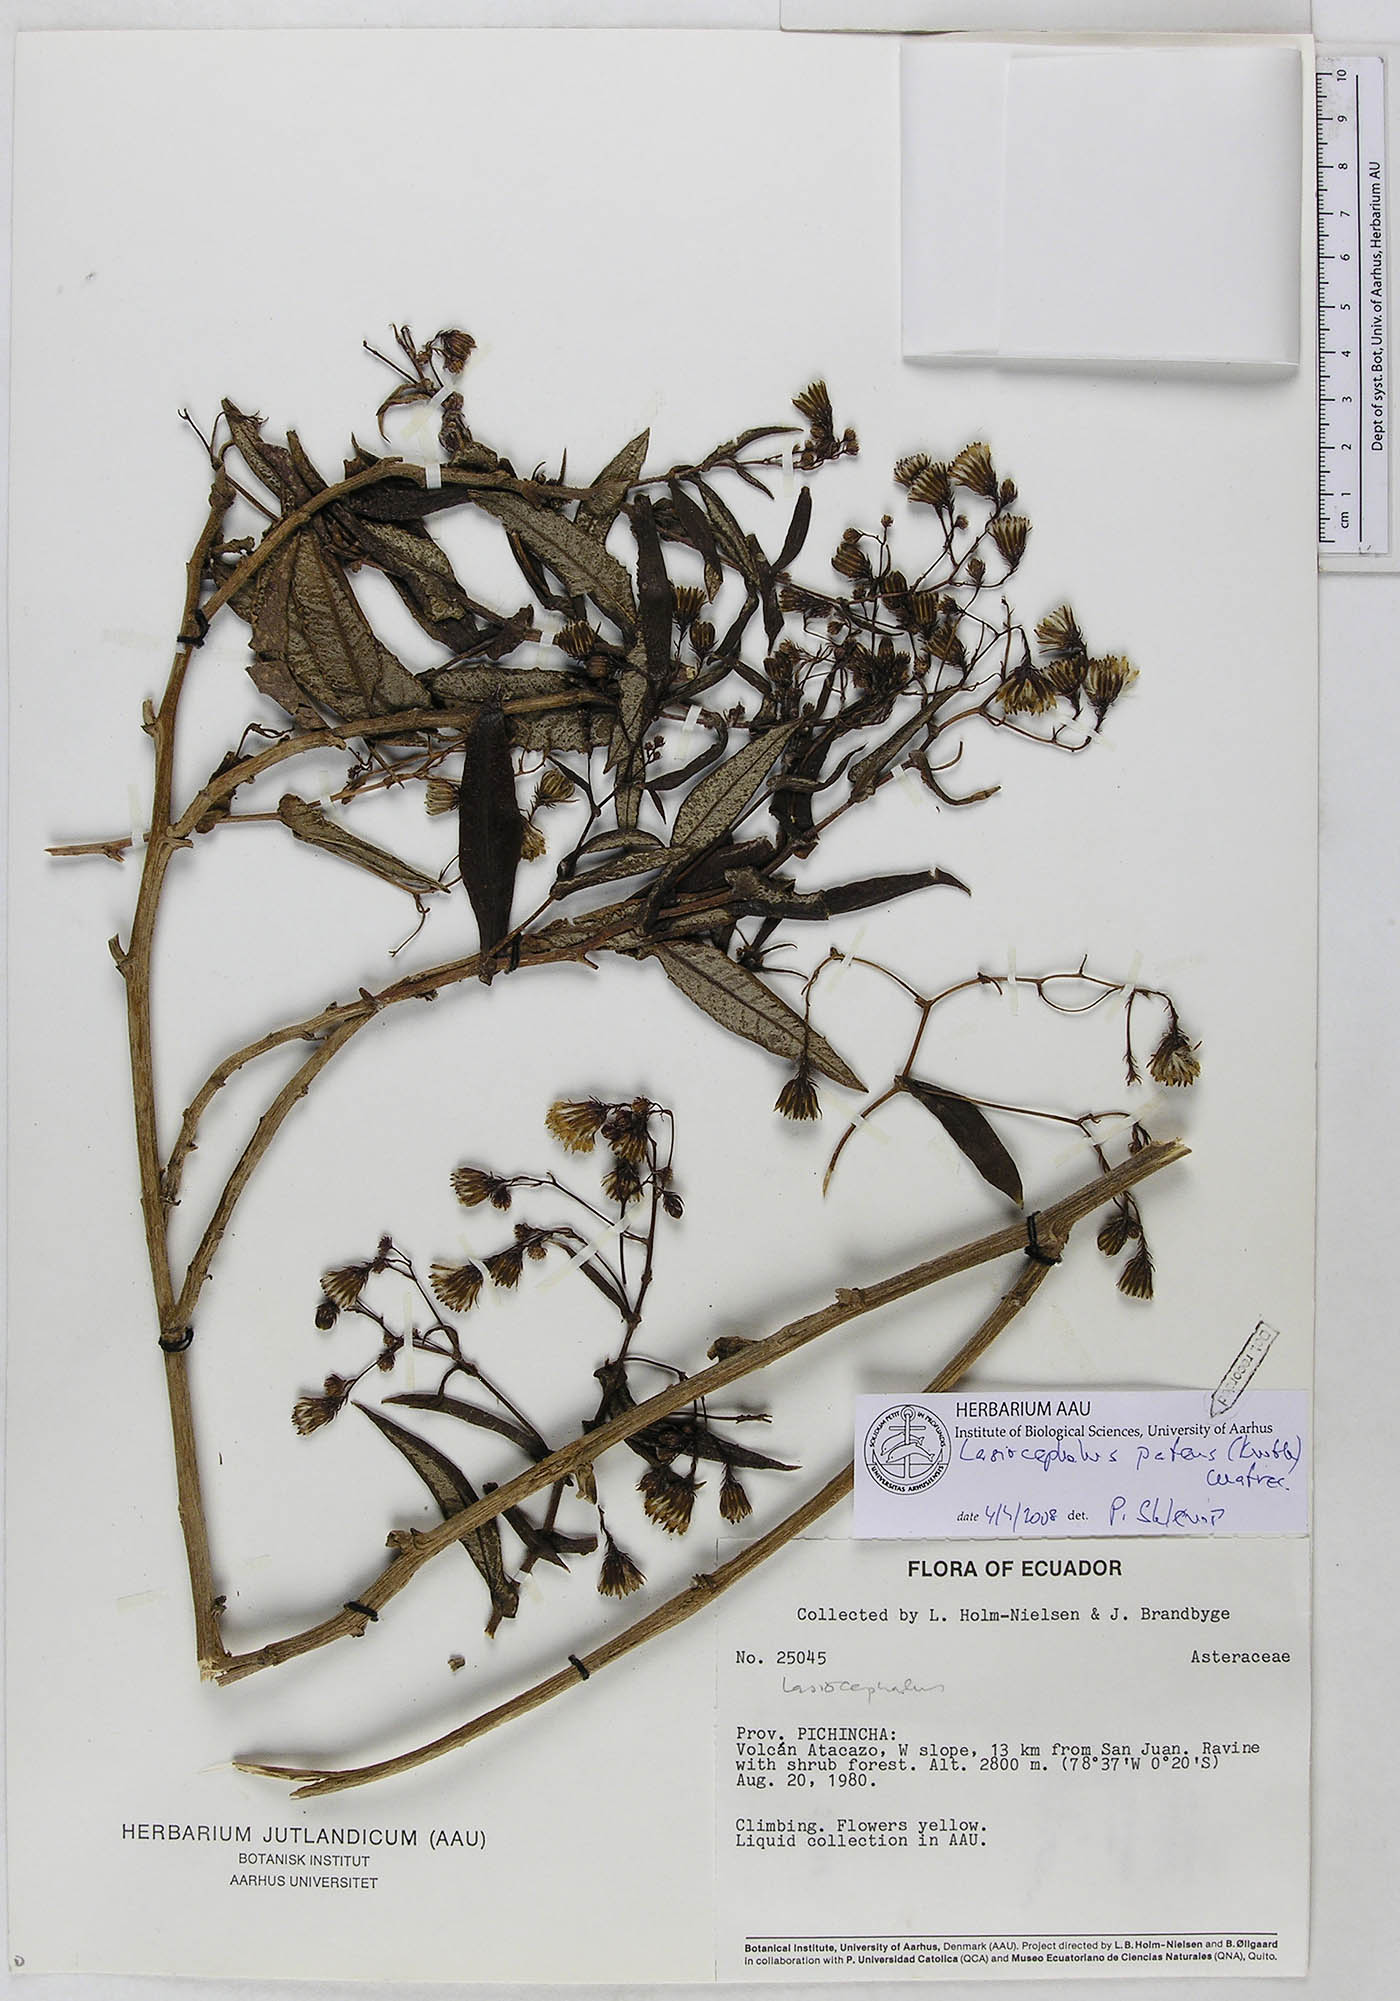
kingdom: Plantae
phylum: Tracheophyta
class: Magnoliopsida
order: Asterales
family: Asteraceae
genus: Aetheolaena
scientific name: Aetheolaena patens
